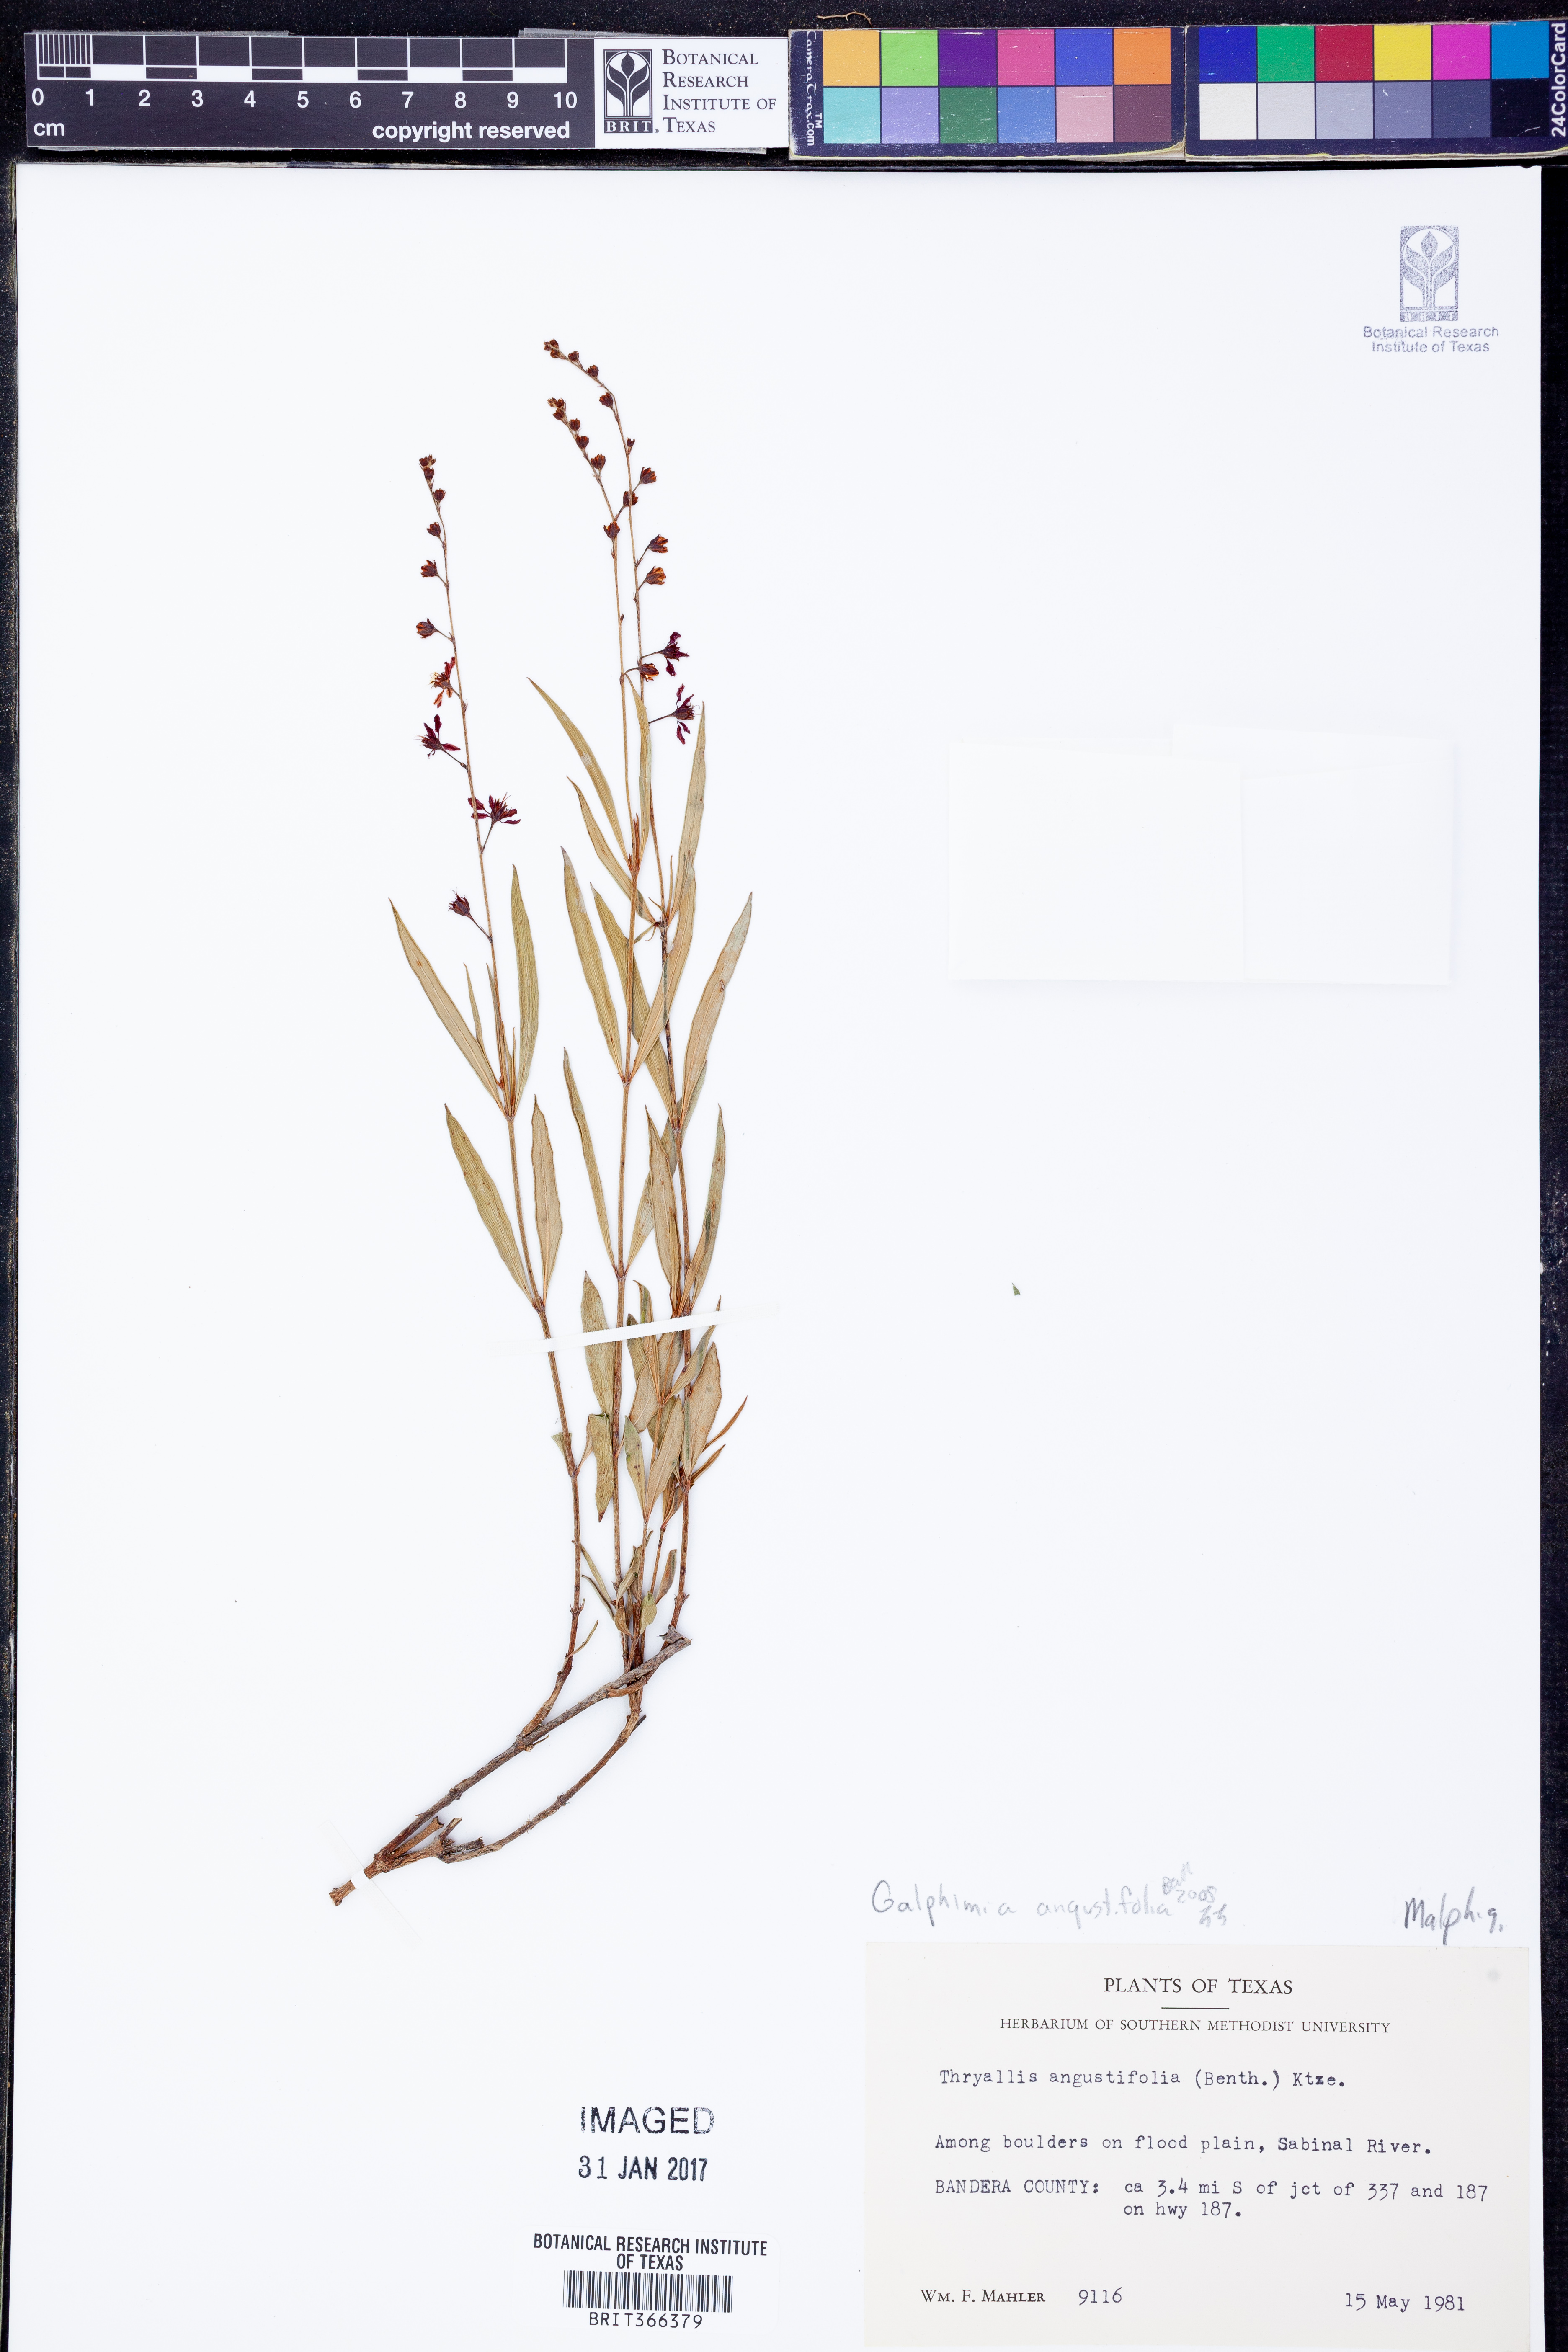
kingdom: Plantae
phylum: Tracheophyta
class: Magnoliopsida
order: Malpighiales
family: Malpighiaceae
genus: Galphimia
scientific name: Galphimia angustifolia
